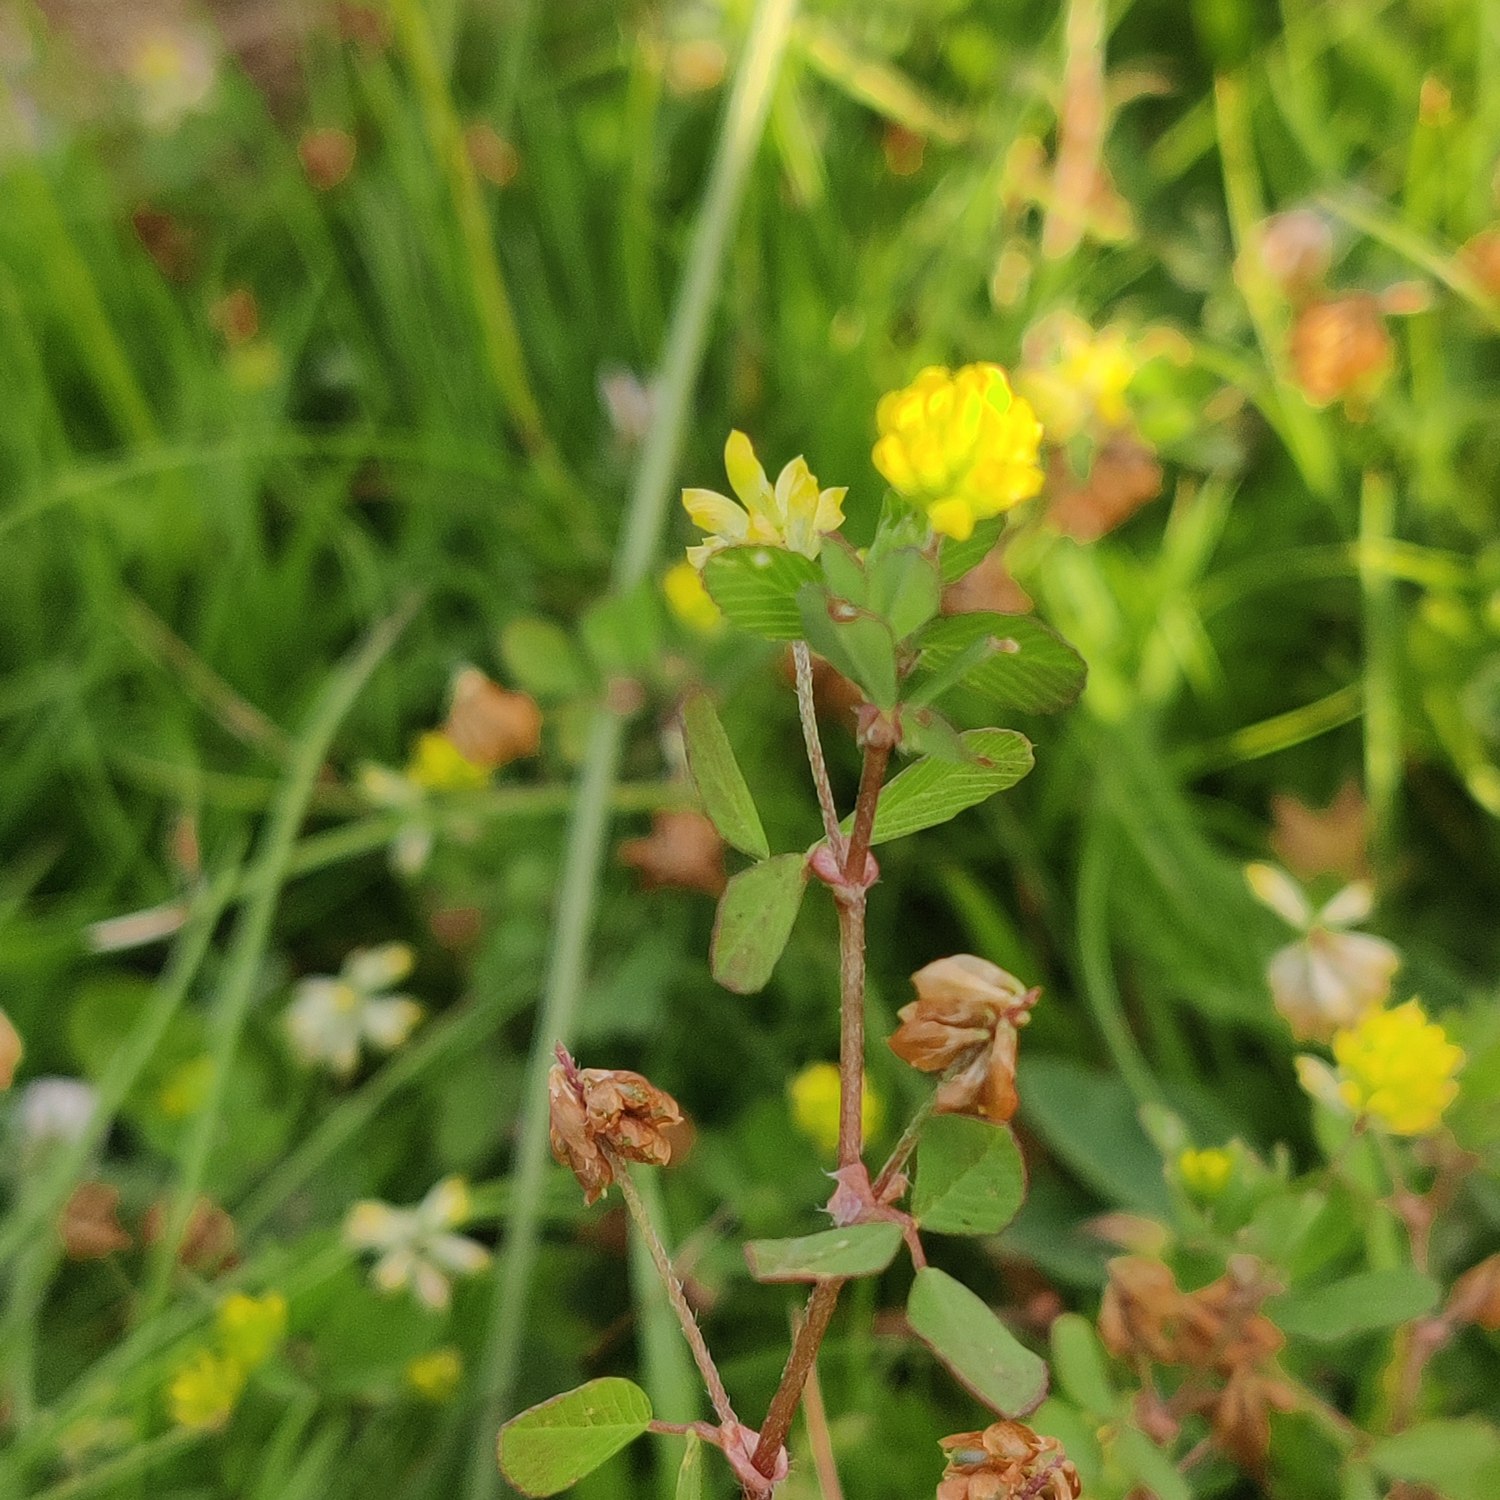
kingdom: Plantae
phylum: Tracheophyta
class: Magnoliopsida
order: Fabales
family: Fabaceae
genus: Trifolium
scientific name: Trifolium dubium
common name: Fin kløver
